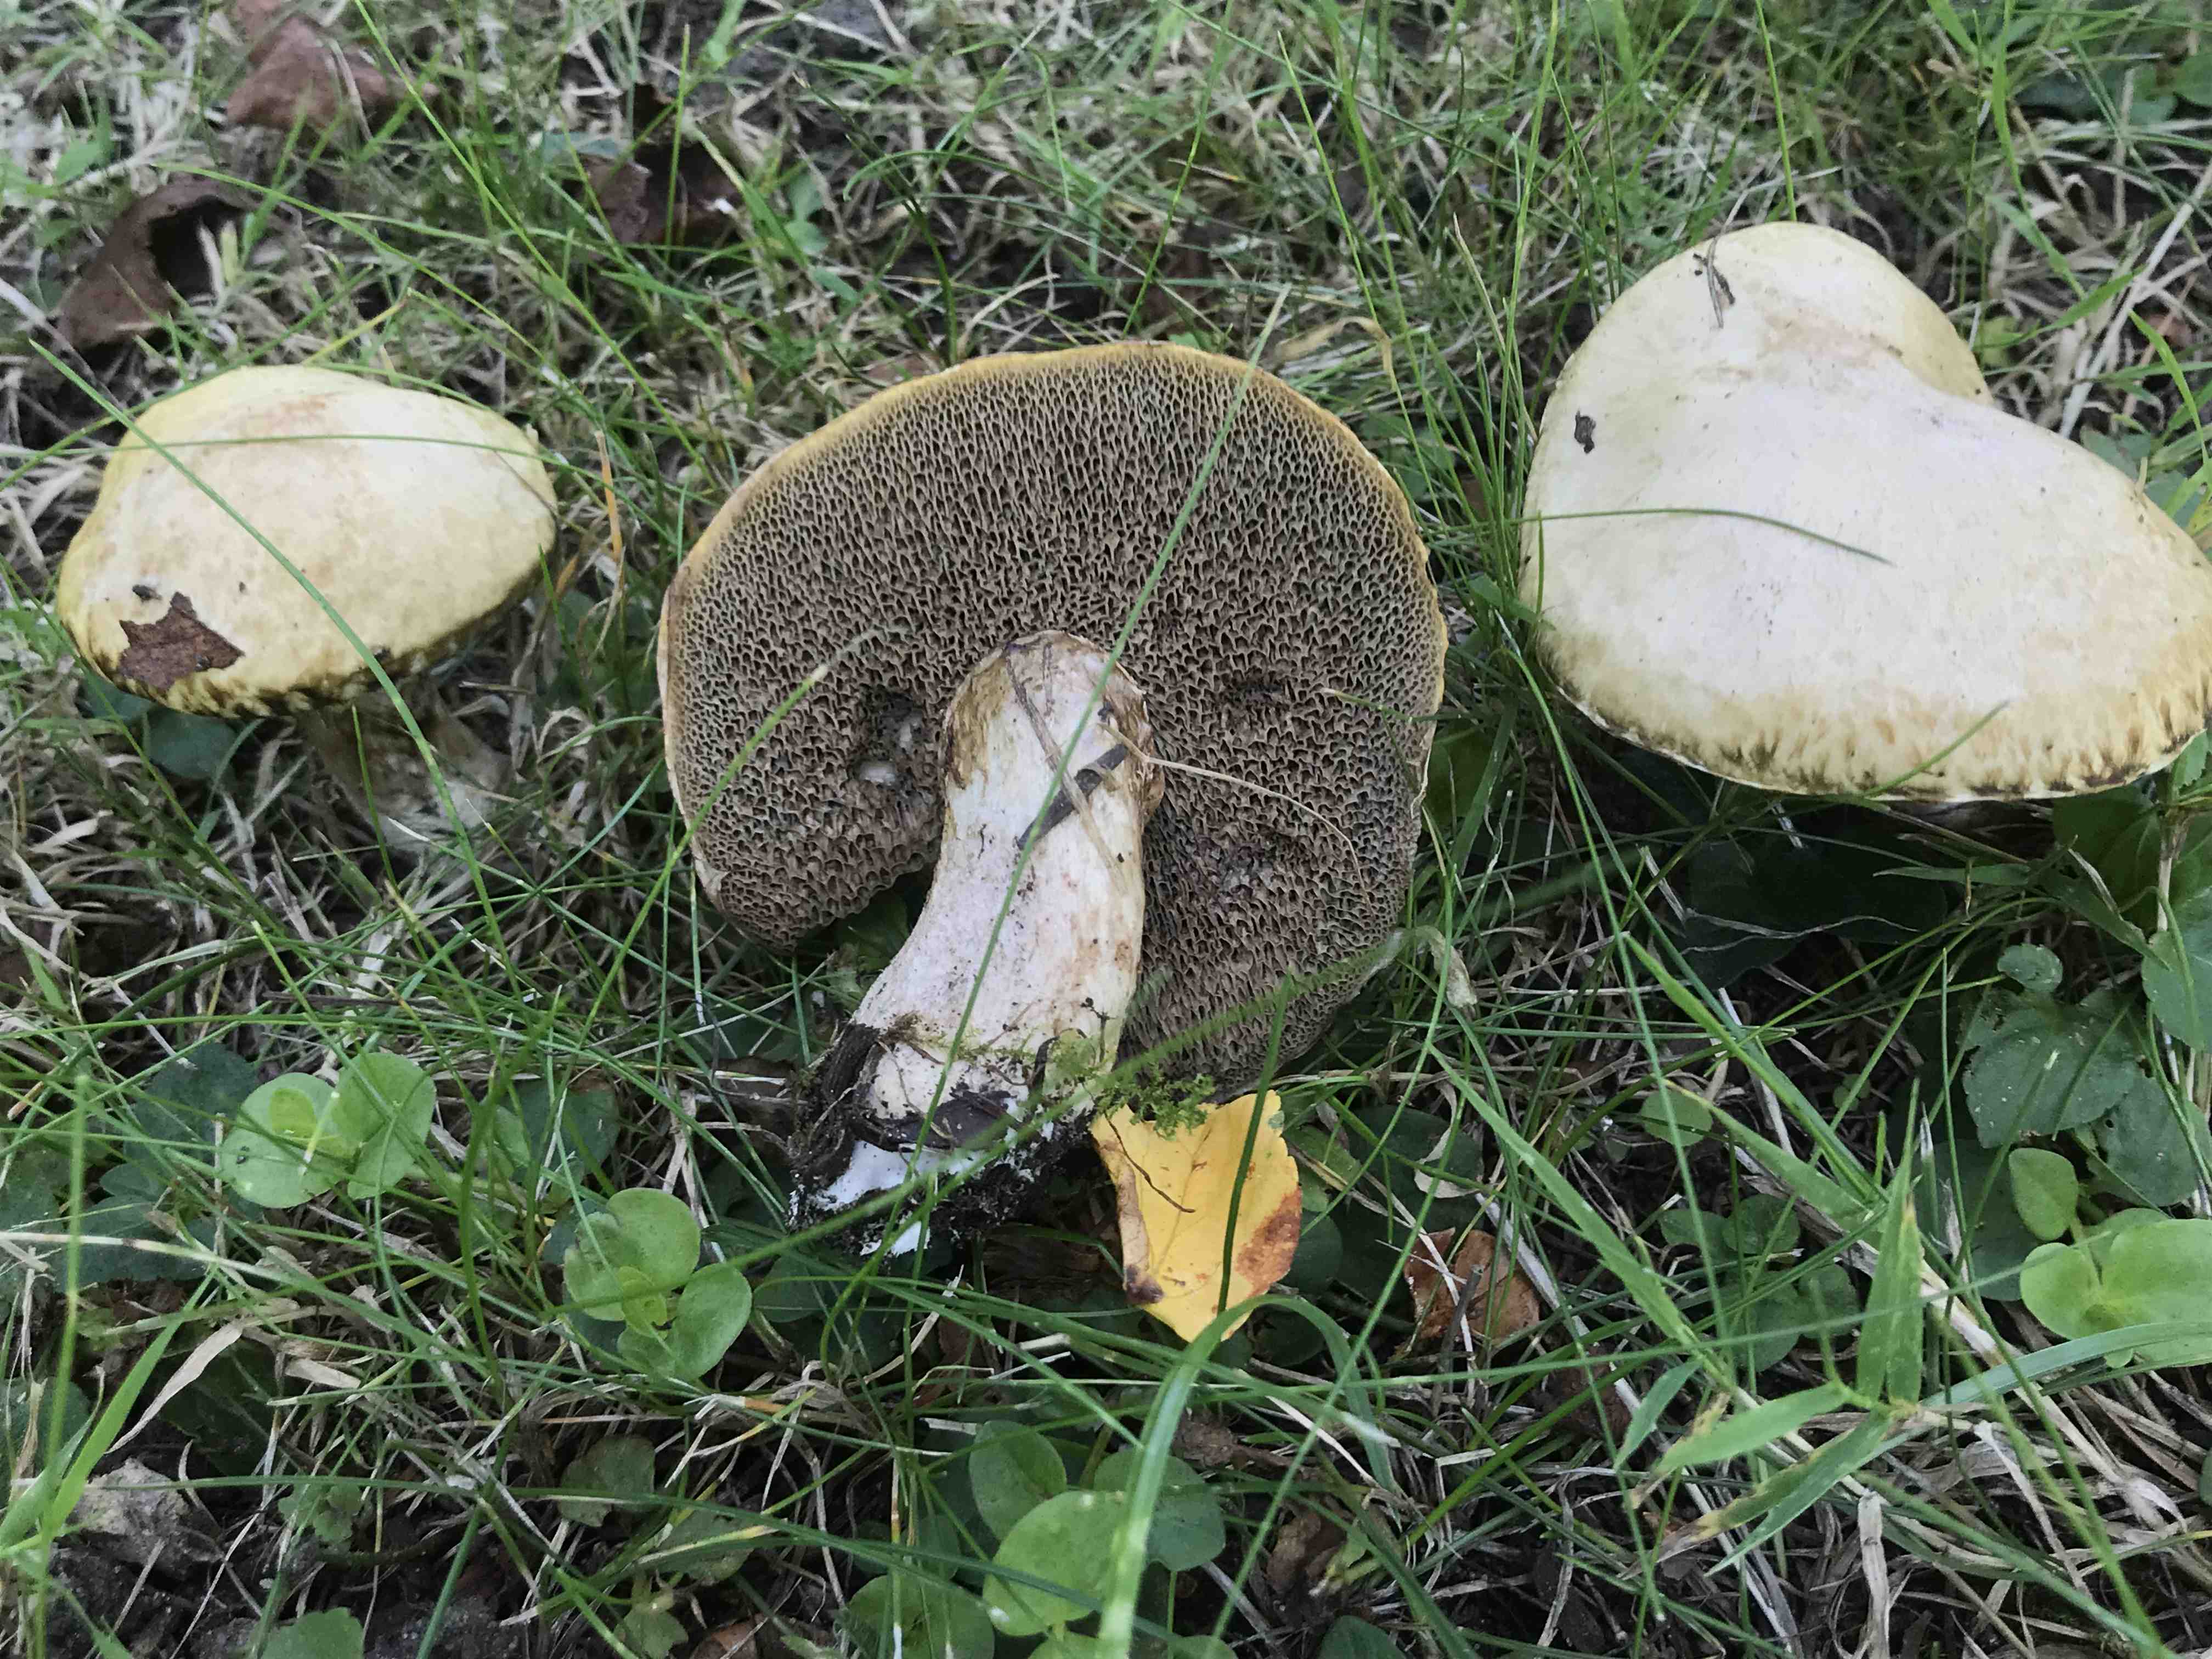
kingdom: Fungi
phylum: Basidiomycota
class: Agaricomycetes
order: Boletales
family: Suillaceae
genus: Suillus
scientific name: Suillus viscidus
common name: olivengrå slimrørhat
